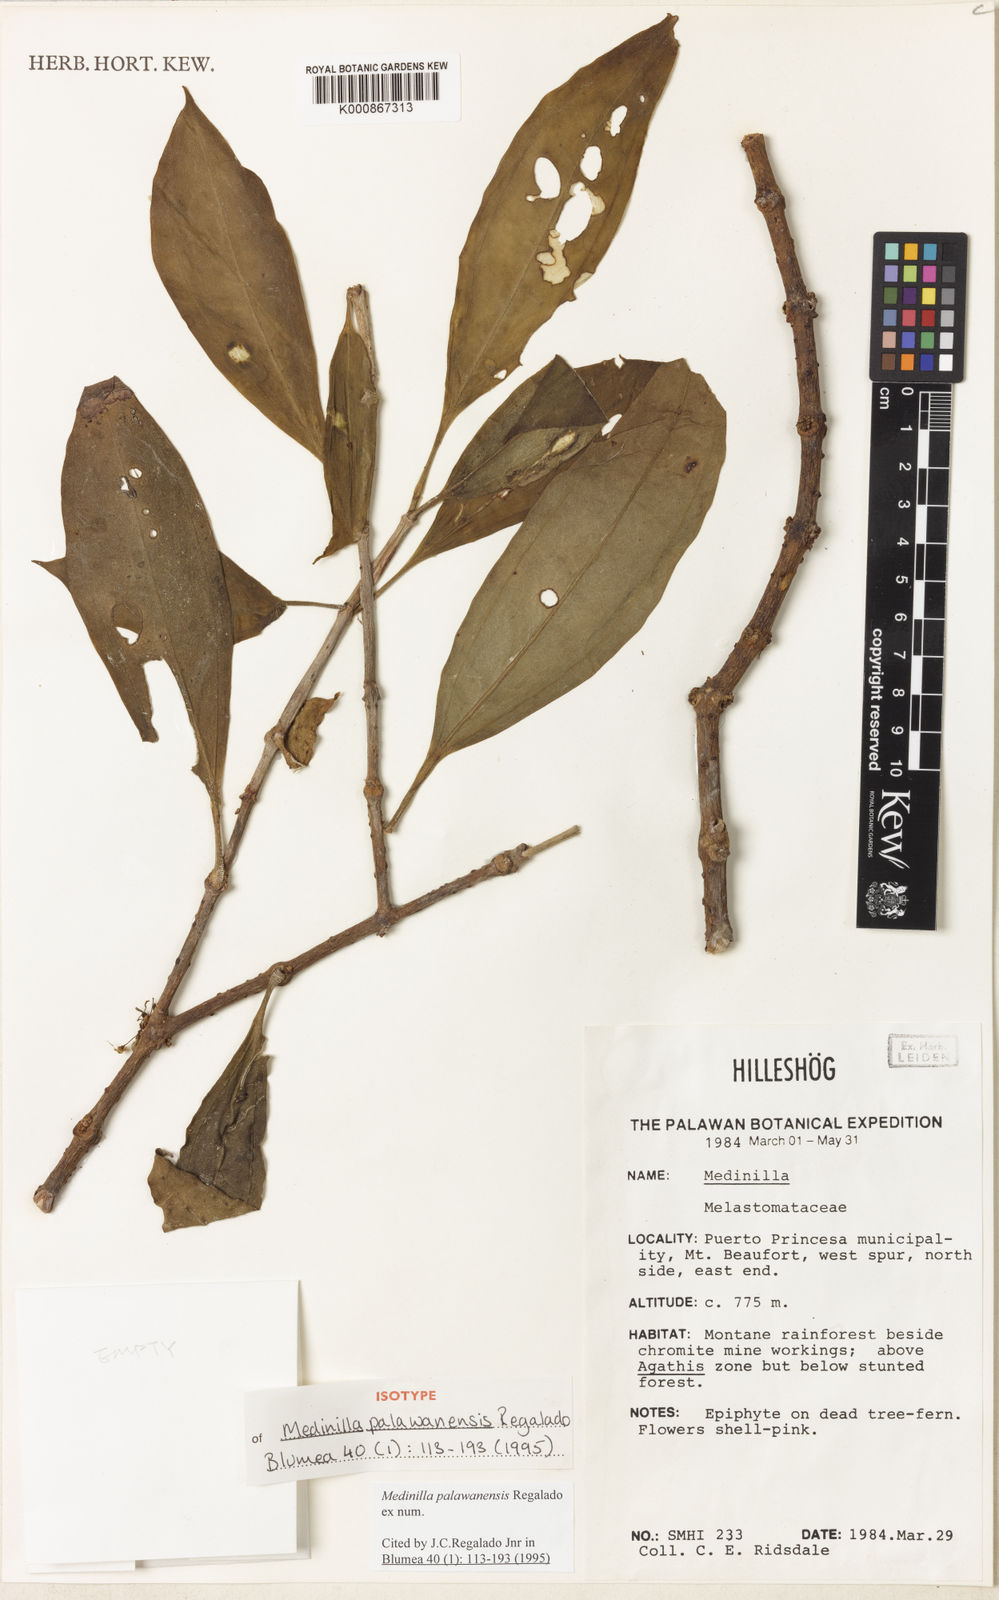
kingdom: Plantae
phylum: Tracheophyta
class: Magnoliopsida
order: Myrtales
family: Melastomataceae
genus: Medinilla
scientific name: Medinilla palawanensis
